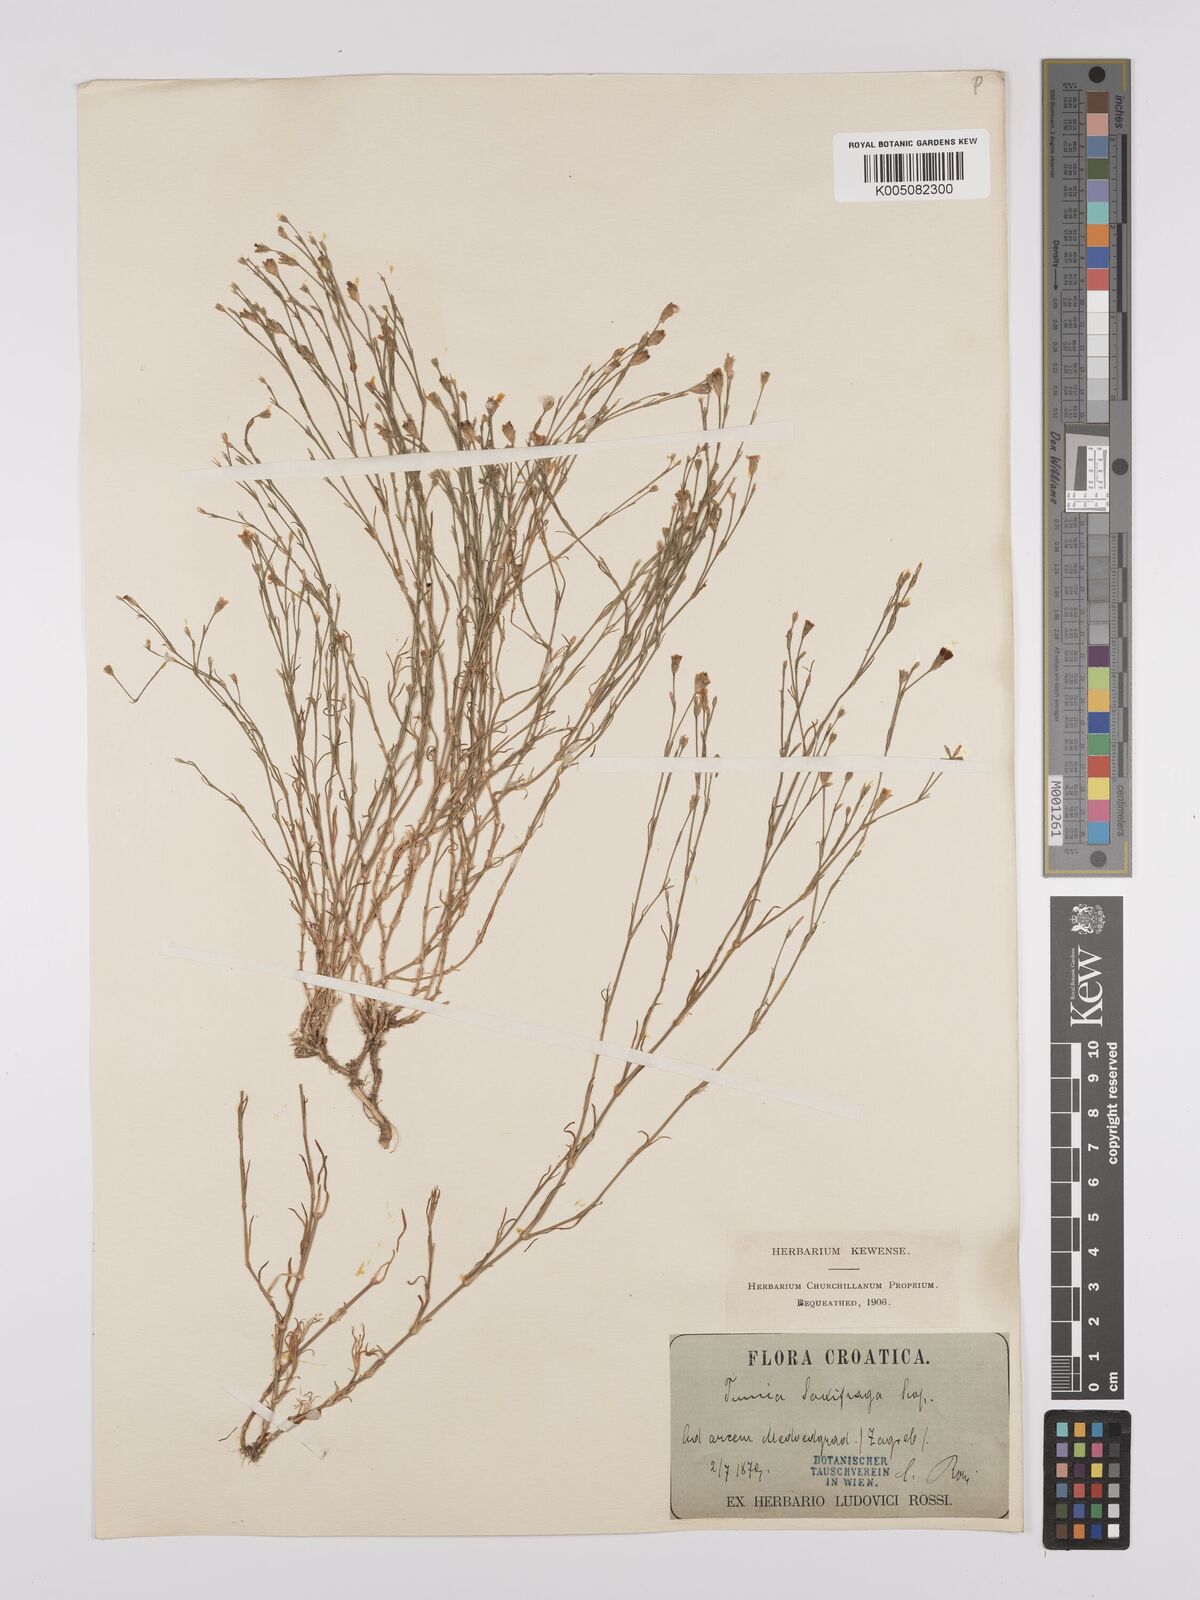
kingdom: Plantae
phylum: Tracheophyta
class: Magnoliopsida
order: Caryophyllales
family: Caryophyllaceae
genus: Petrorhagia
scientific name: Petrorhagia saxifraga
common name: Tunicflower
